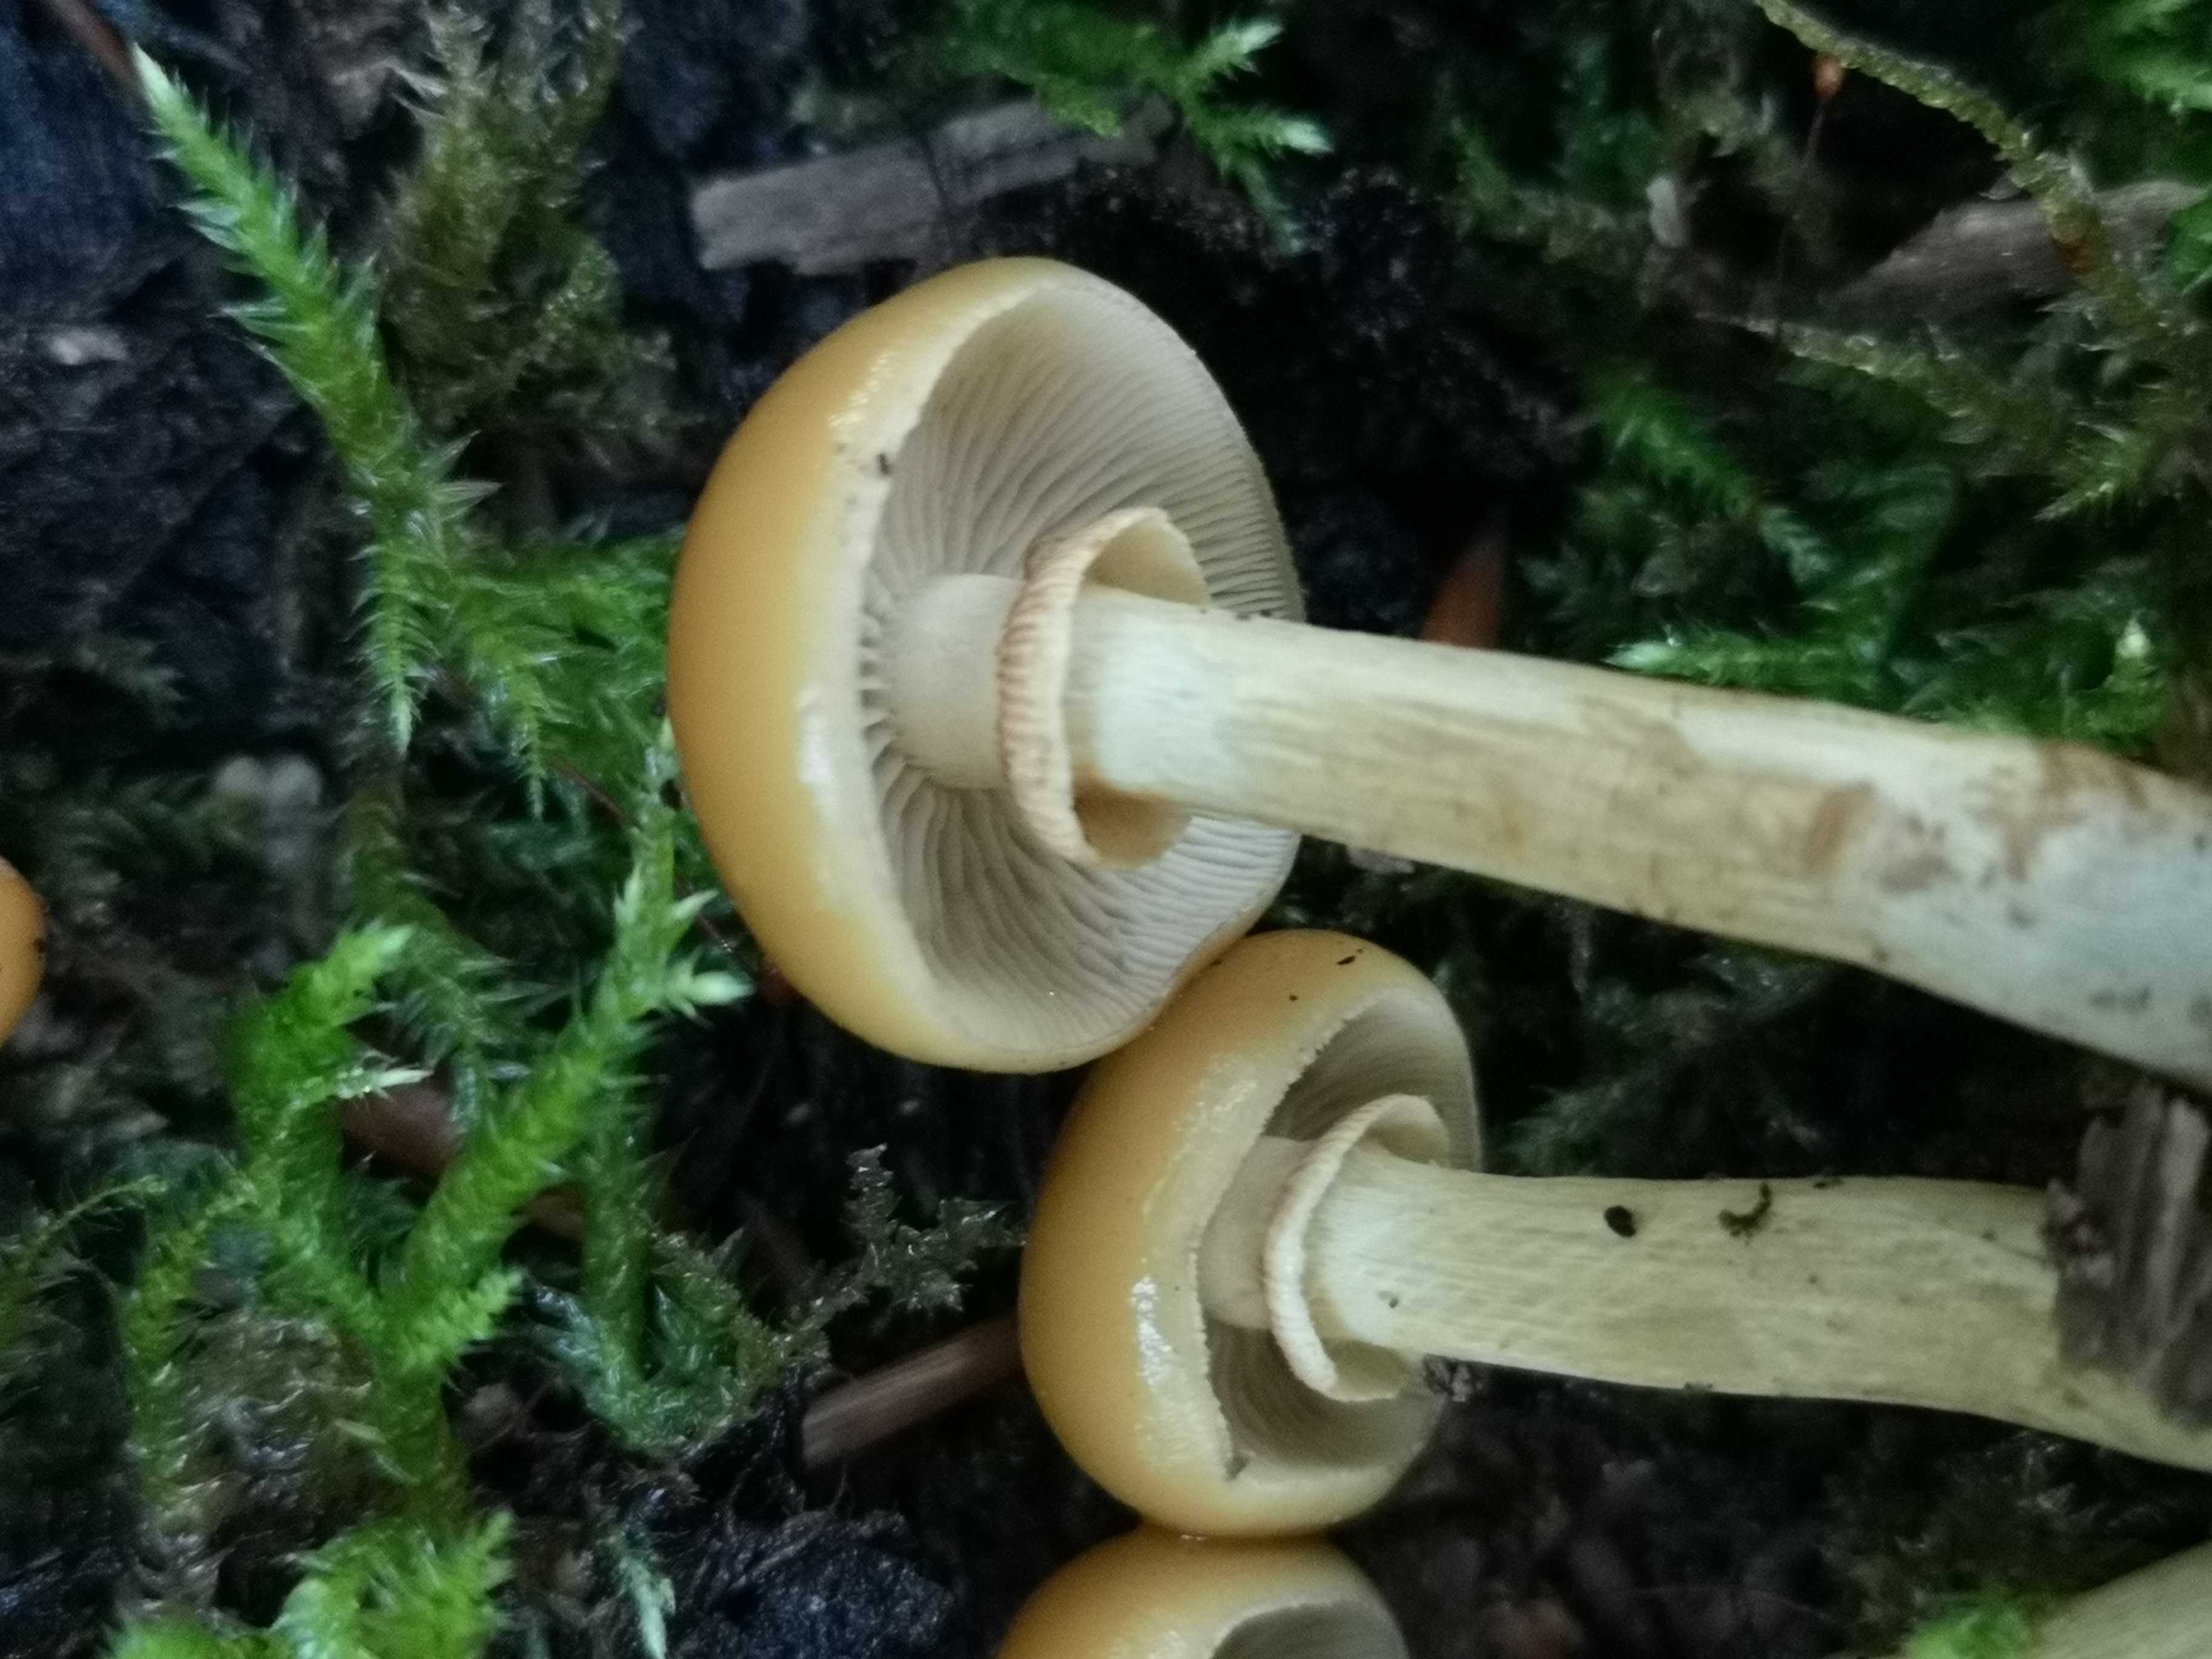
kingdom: Fungi
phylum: Basidiomycota
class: Agaricomycetes
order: Agaricales
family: Hymenogastraceae
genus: Galerina
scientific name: Galerina marginata
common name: randbæltet hjelmhat
